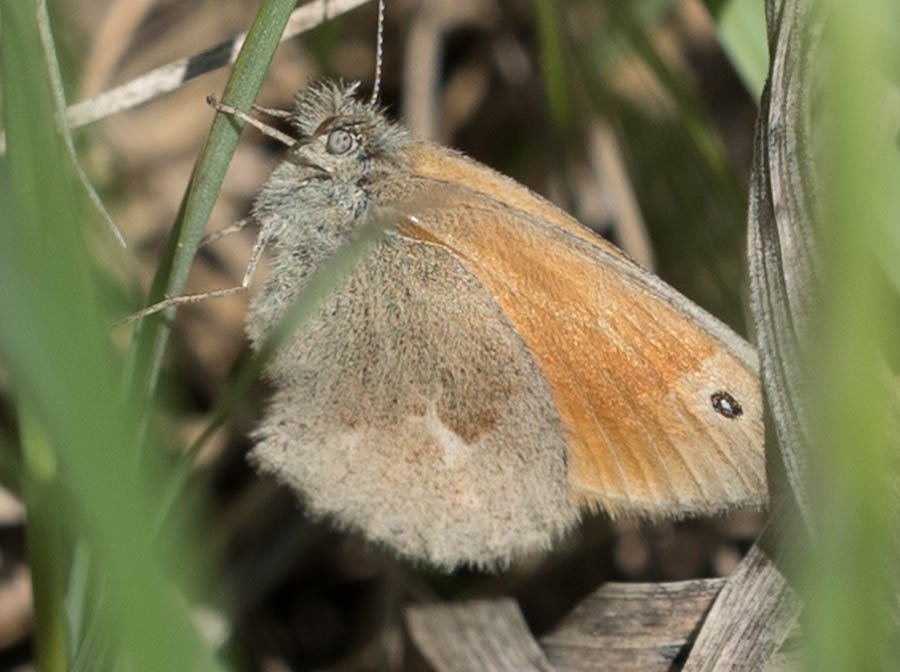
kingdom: Animalia
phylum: Arthropoda
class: Insecta
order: Lepidoptera
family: Nymphalidae
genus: Coenonympha
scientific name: Coenonympha tullia
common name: Large Heath
